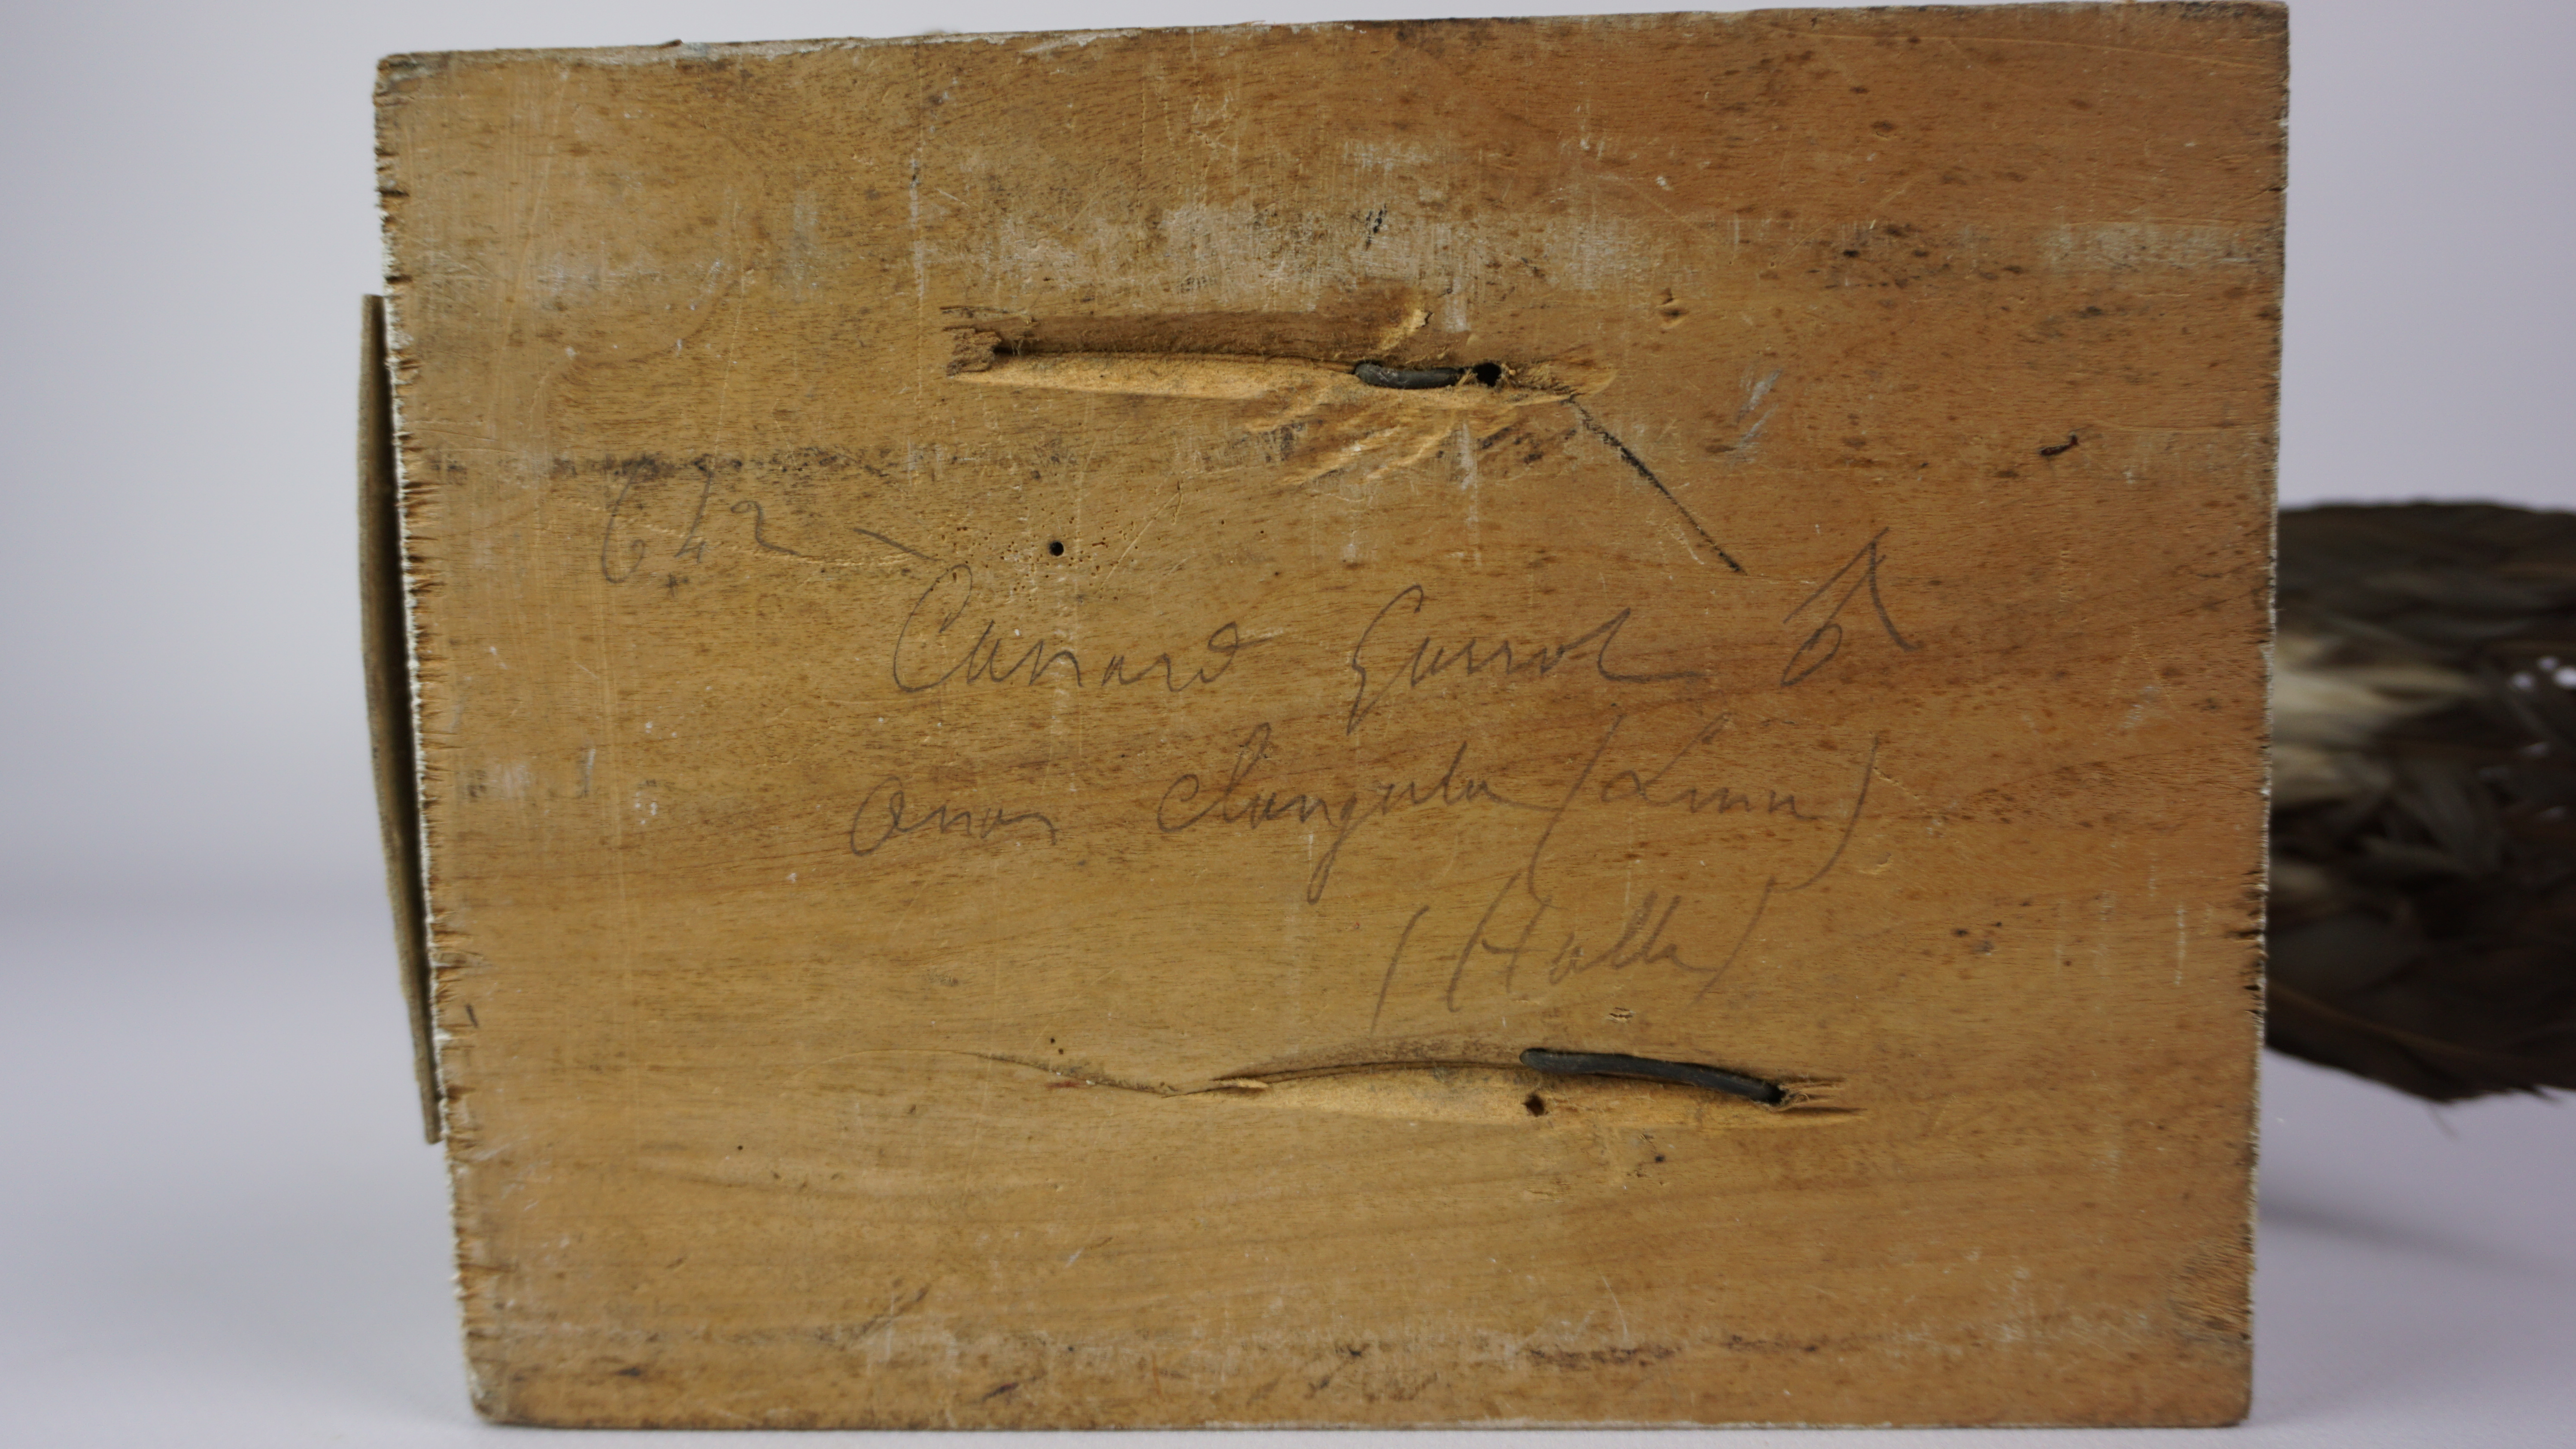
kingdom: Animalia
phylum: Chordata
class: Aves
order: Anseriformes
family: Anatidae
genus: Bucephala
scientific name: Bucephala clangula
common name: Common goldeneye
